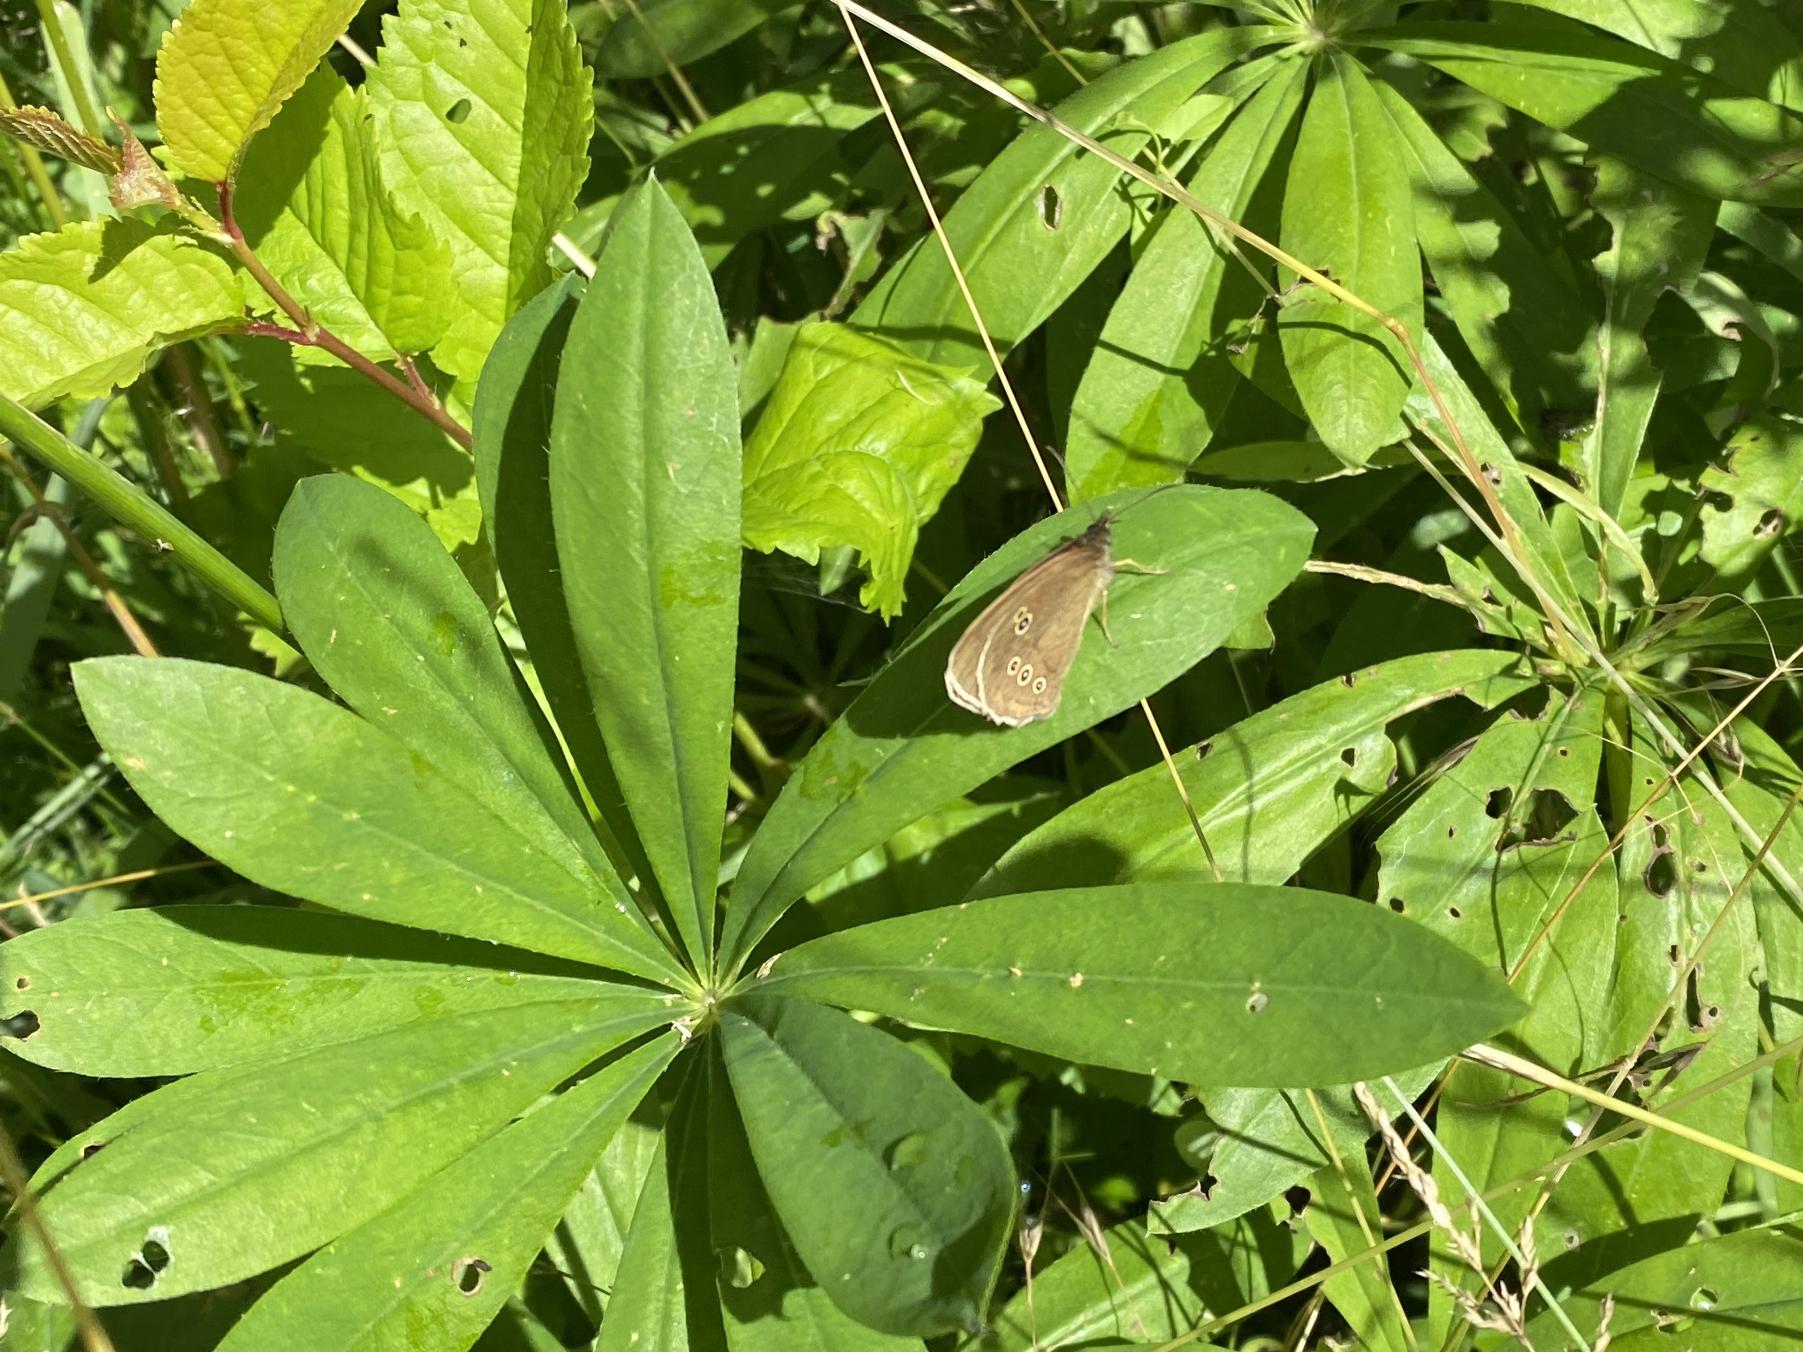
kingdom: Animalia
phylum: Arthropoda
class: Insecta
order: Lepidoptera
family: Nymphalidae
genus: Aphantopus
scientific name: Aphantopus hyperantus
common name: Engrandøje
